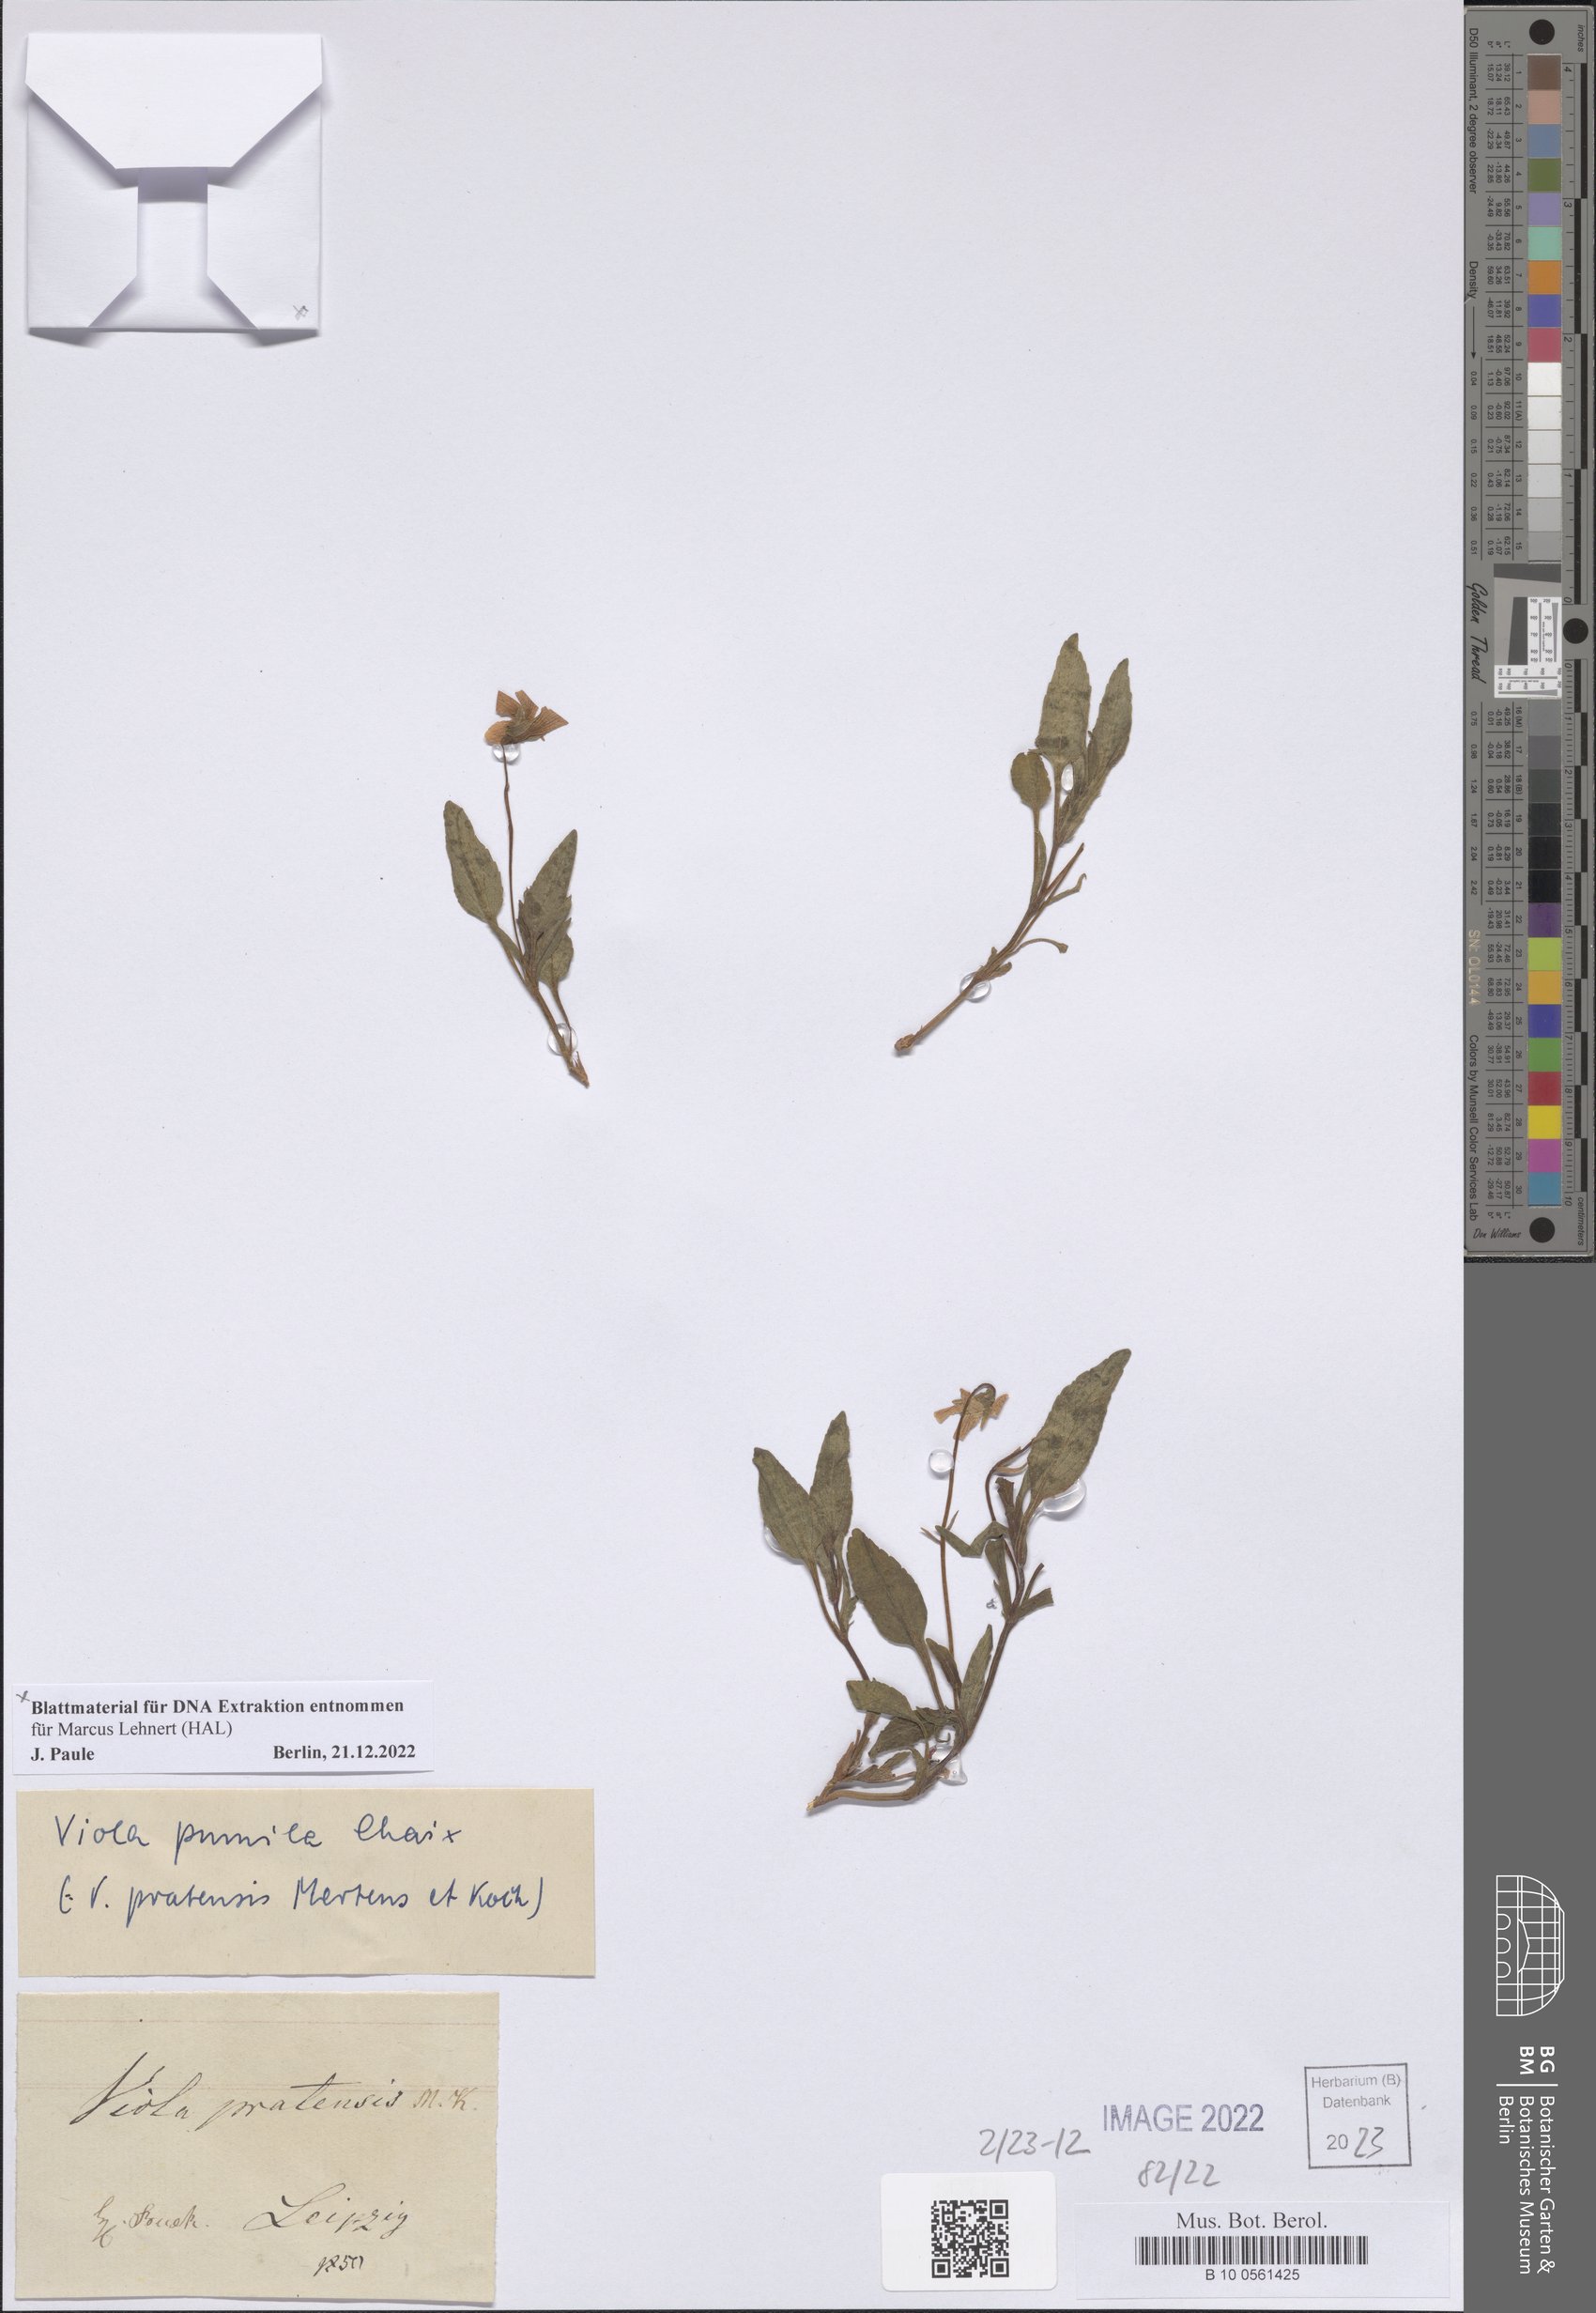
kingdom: Plantae
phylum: Tracheophyta
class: Magnoliopsida
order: Malpighiales
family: Violaceae
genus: Viola
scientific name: Viola pumila
